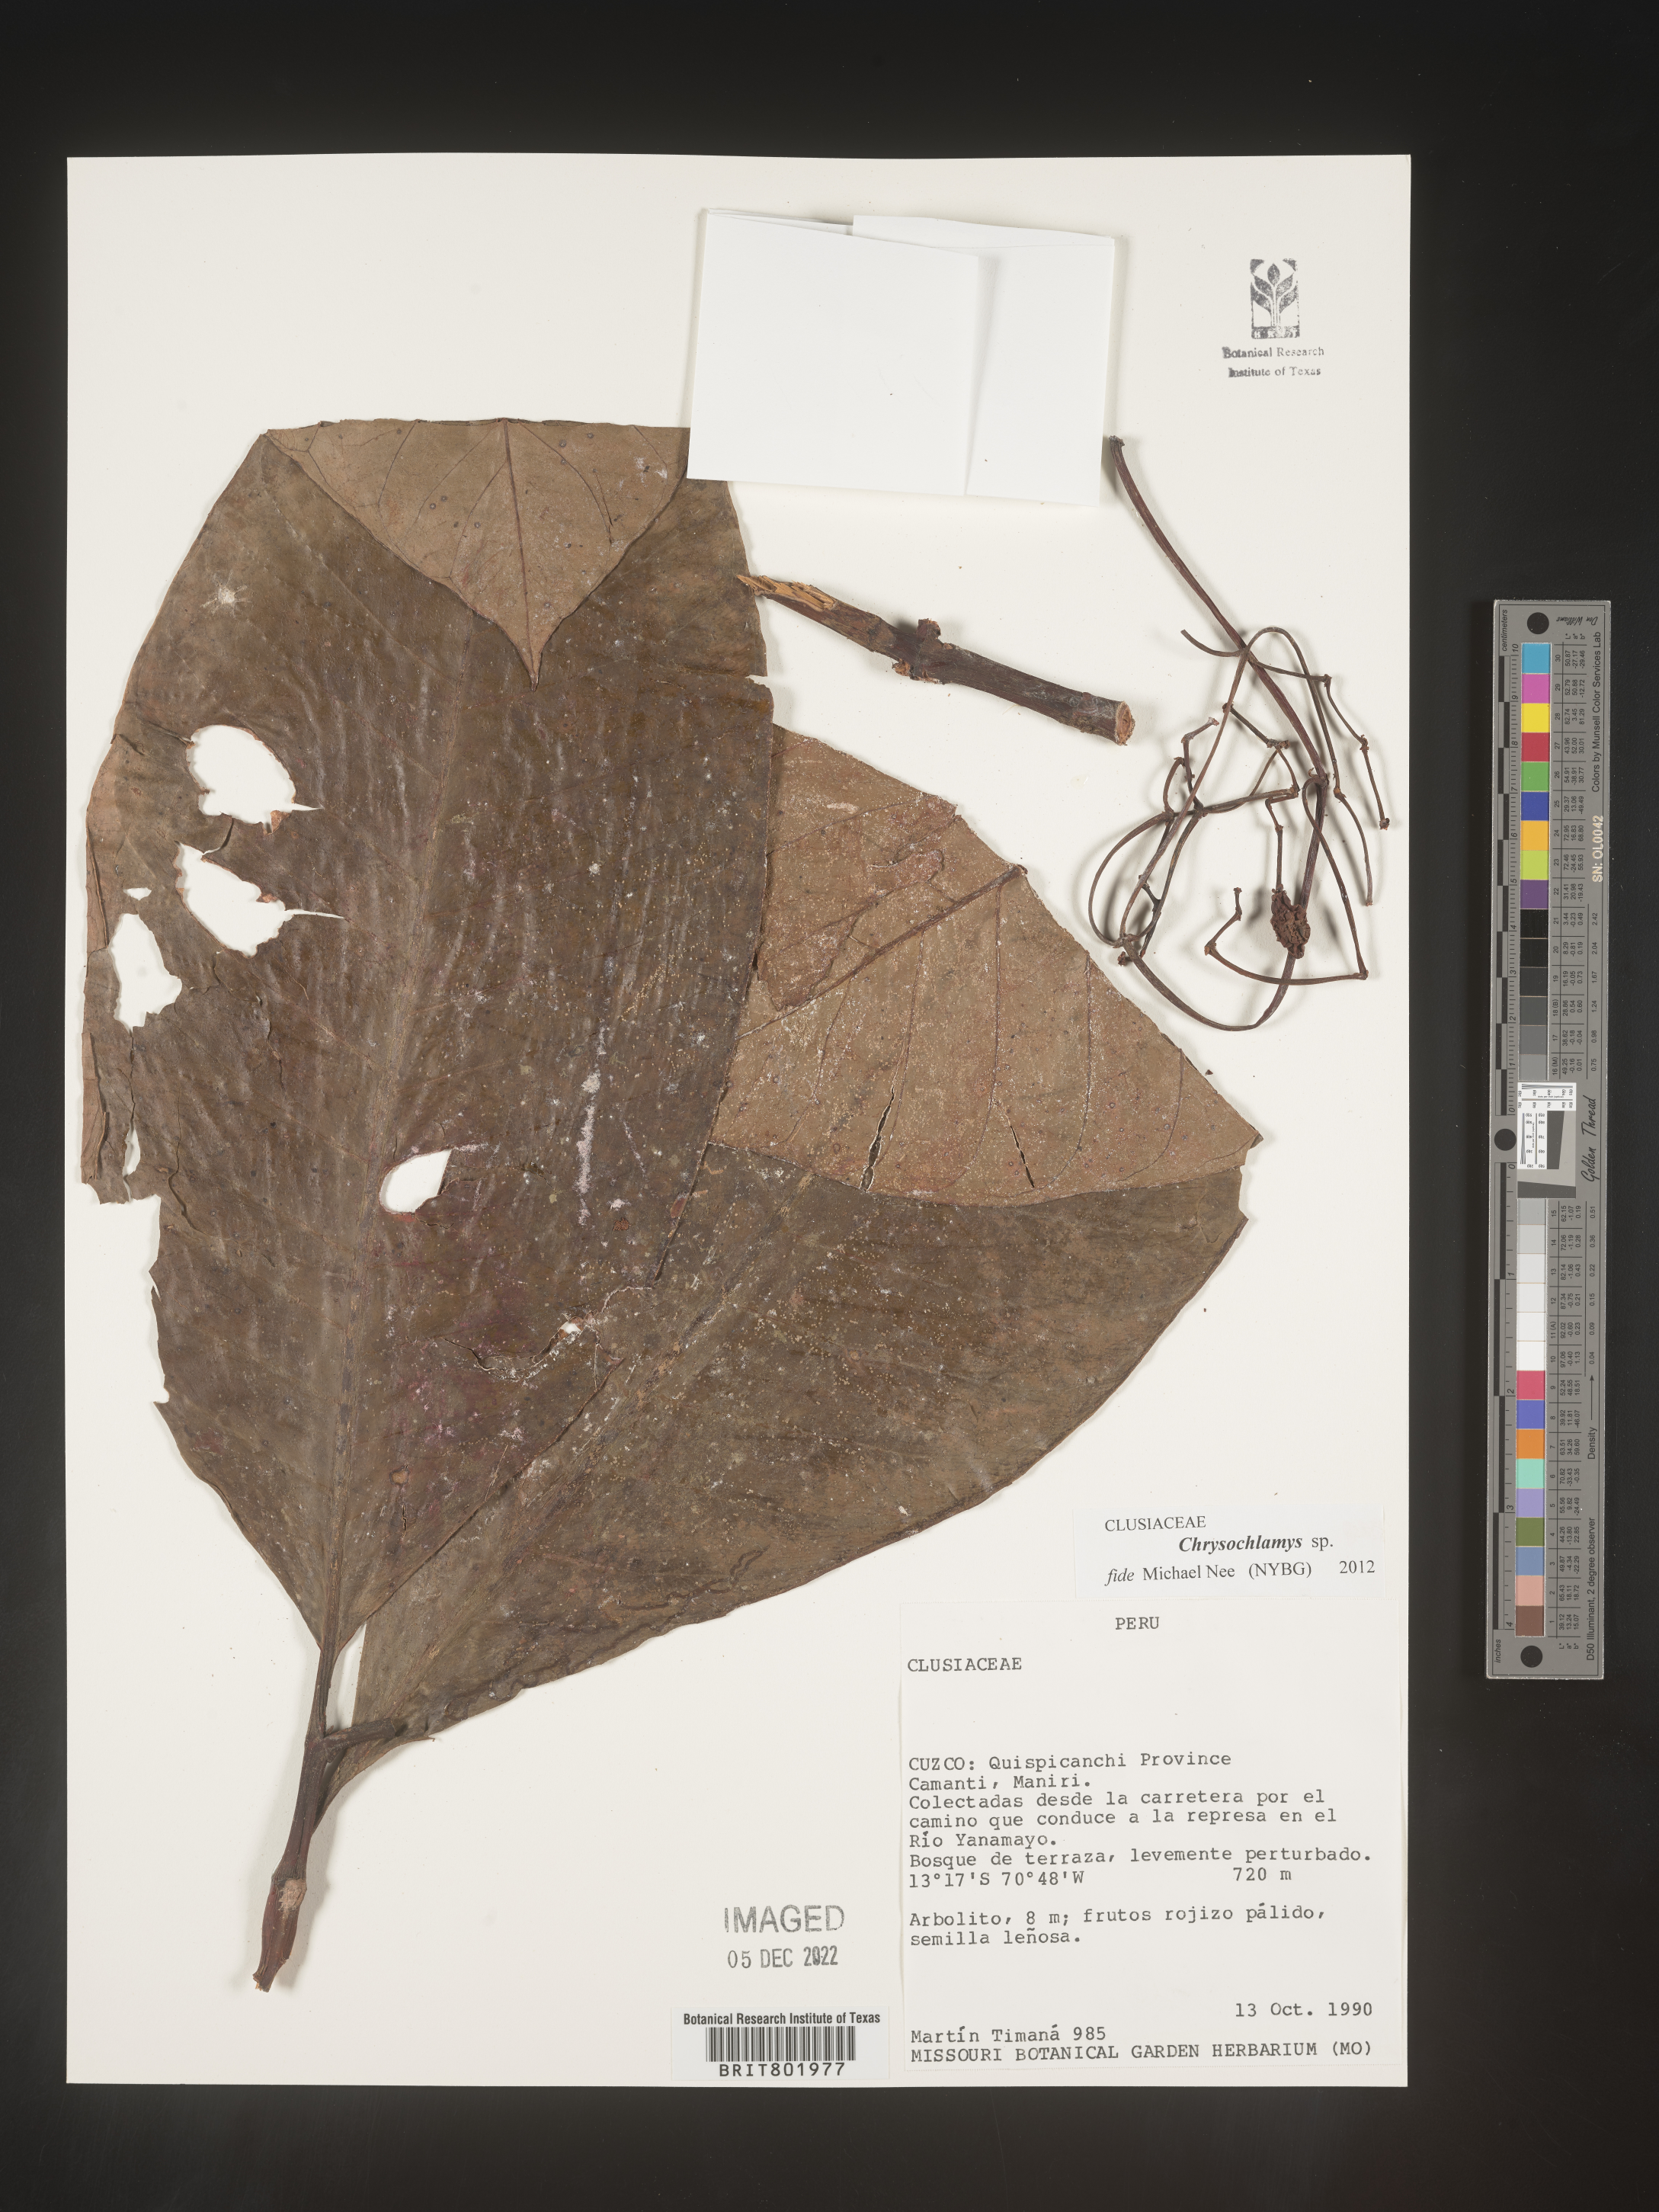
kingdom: Plantae
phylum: Tracheophyta
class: Magnoliopsida
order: Malpighiales
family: Clusiaceae
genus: Chrysochlamys
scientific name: Chrysochlamys
